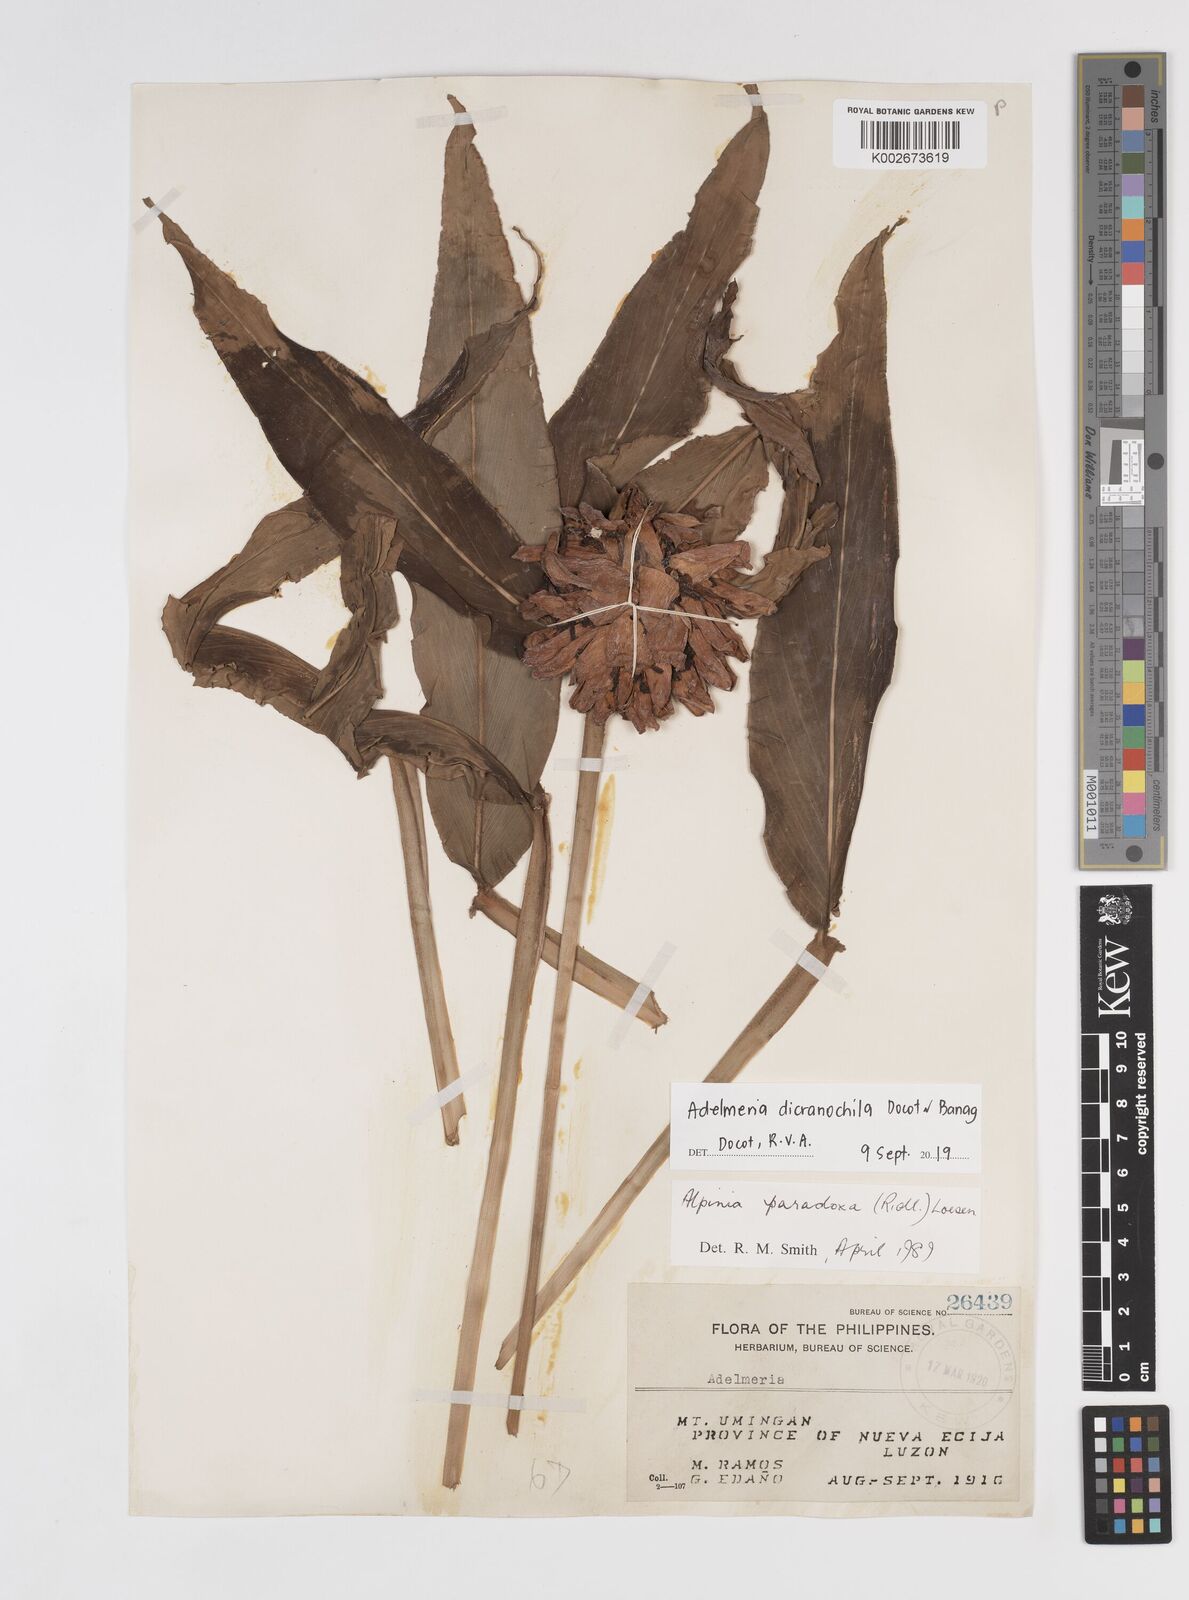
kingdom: Plantae
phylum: Tracheophyta
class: Liliopsida
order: Zingiberales
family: Zingiberaceae
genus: Adelmeria
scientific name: Adelmeria dicranochila
